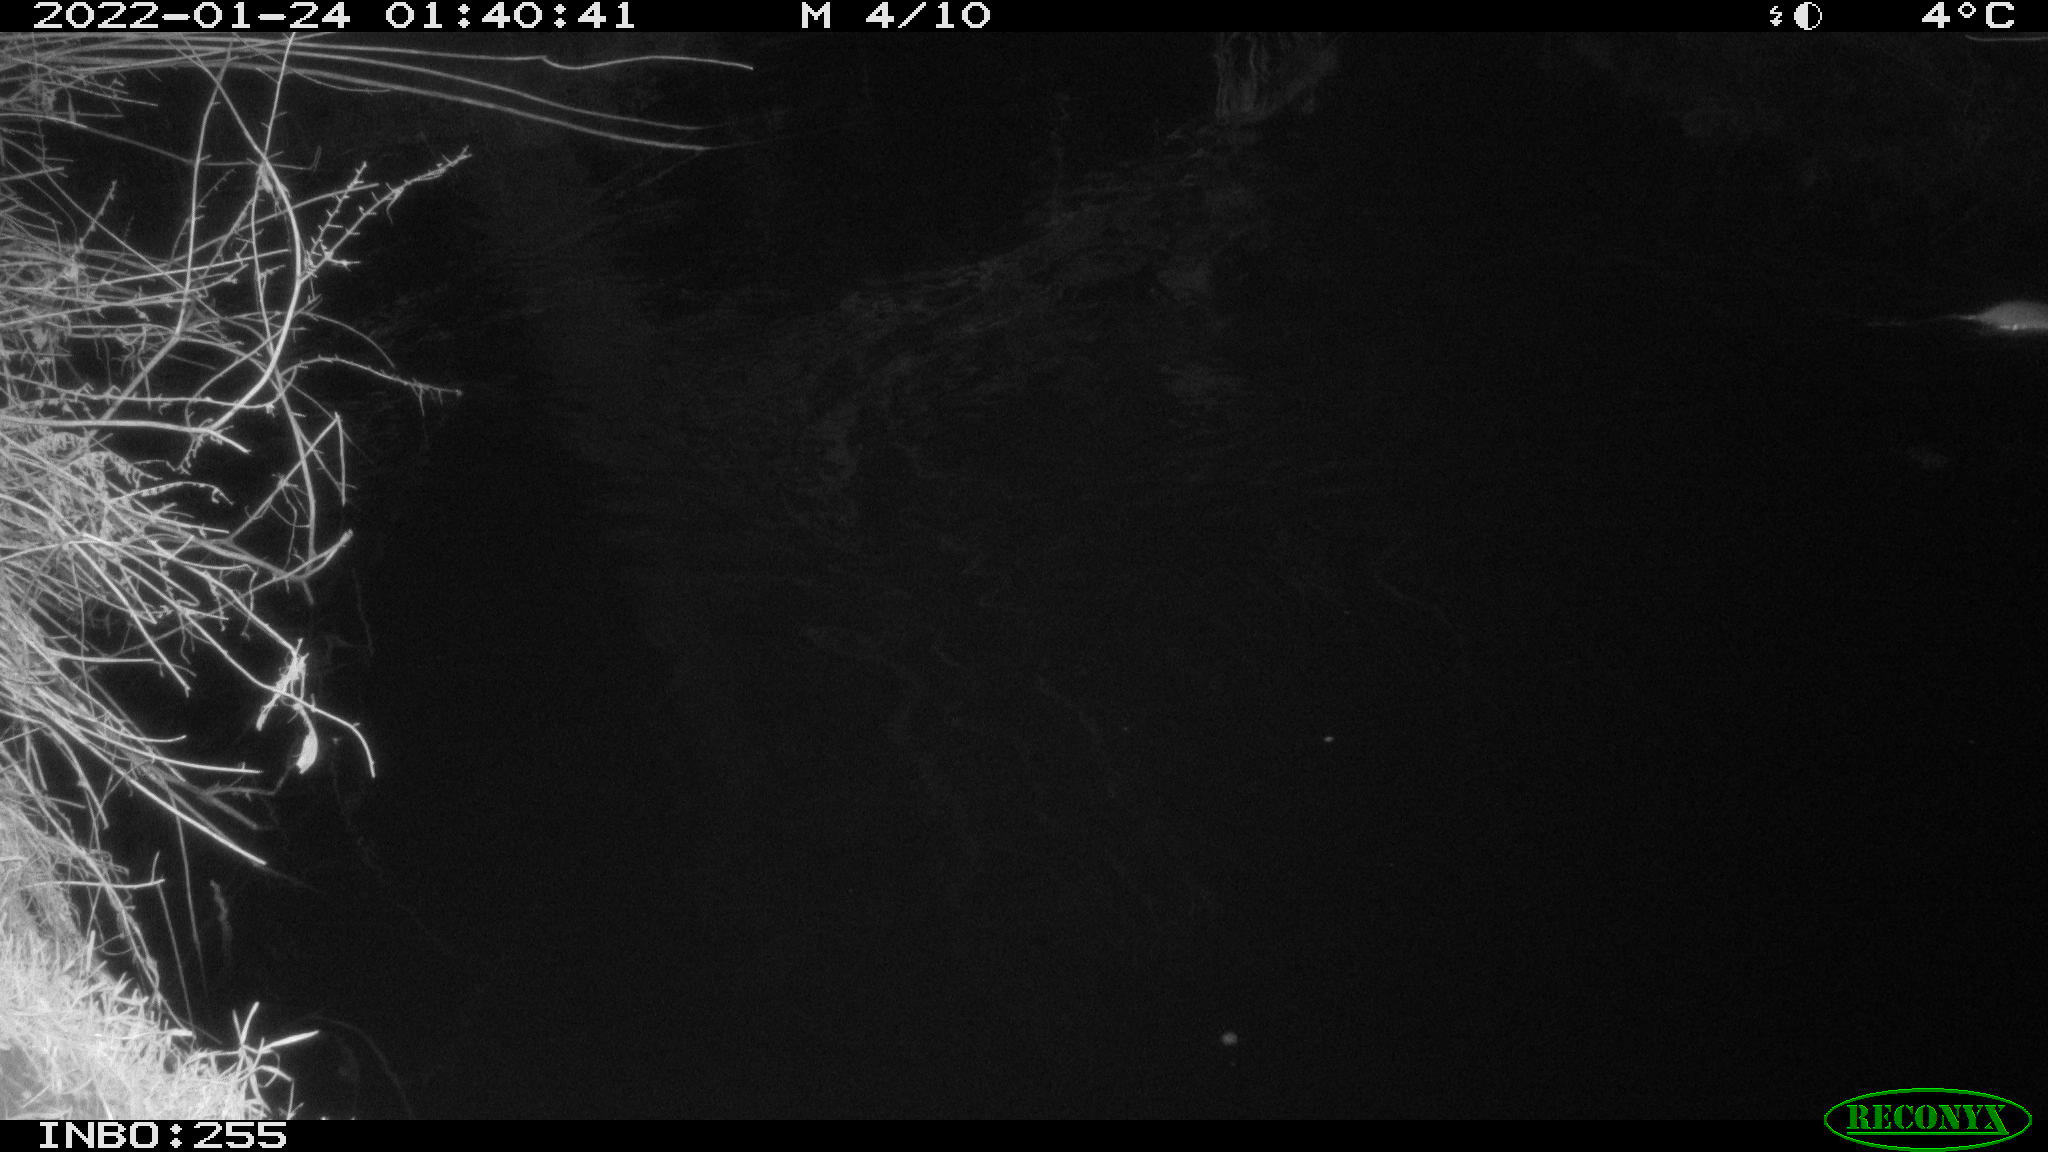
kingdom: Animalia
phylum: Chordata
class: Mammalia
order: Rodentia
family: Muridae
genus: Rattus
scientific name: Rattus norvegicus
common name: Brown rat
